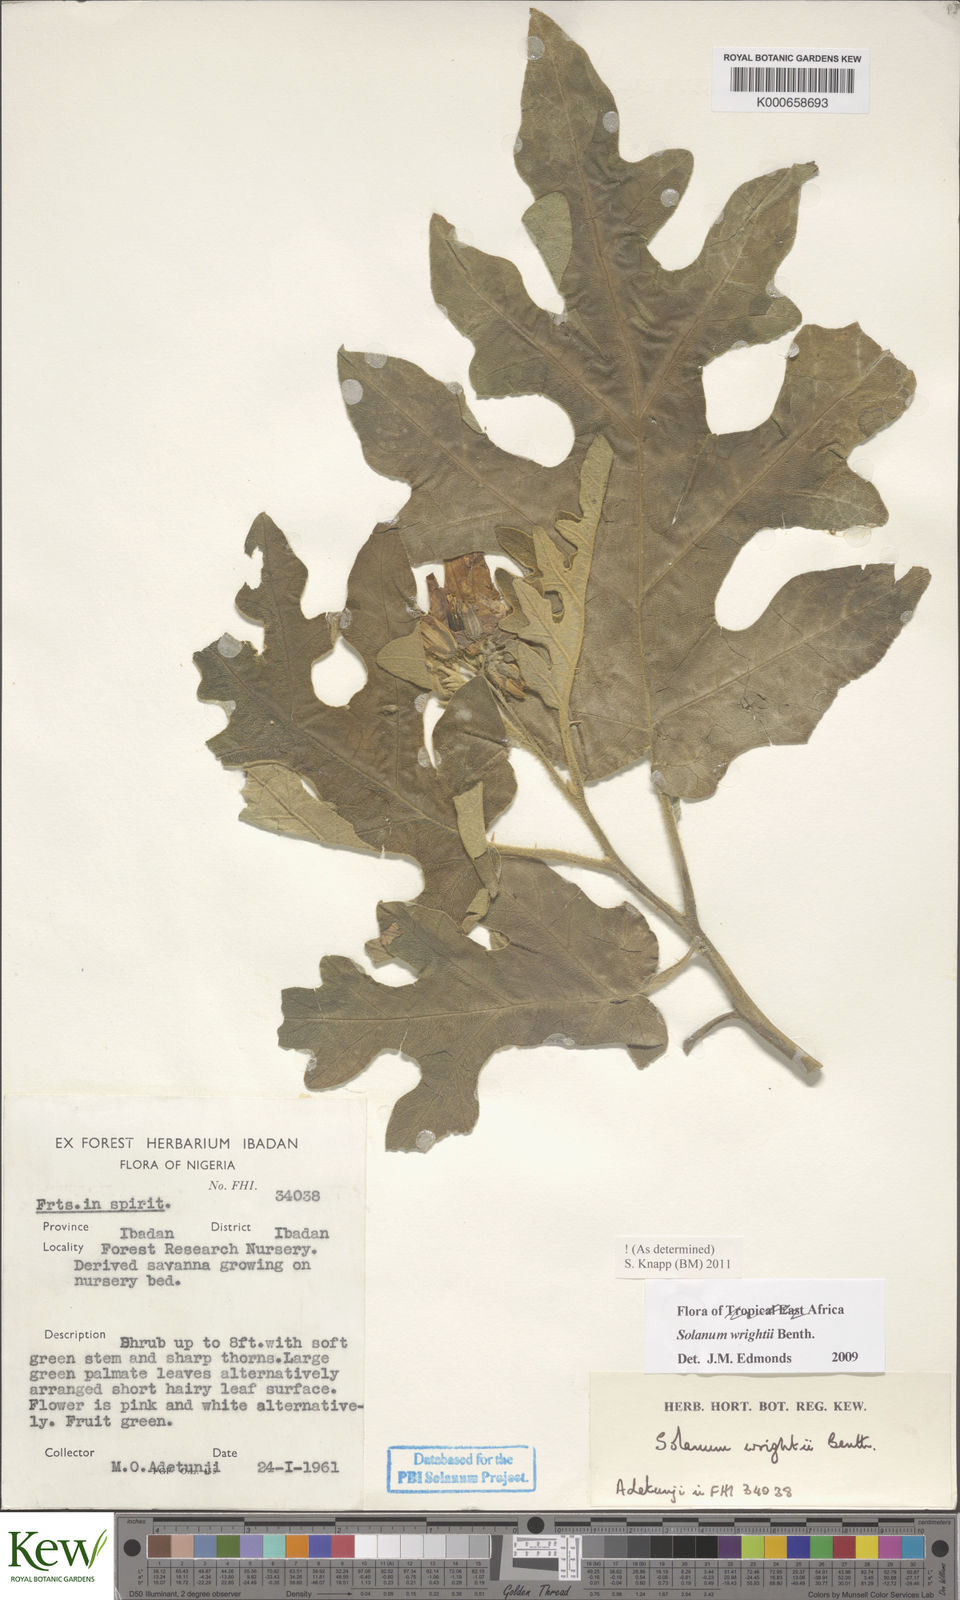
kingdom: Plantae
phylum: Tracheophyta
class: Magnoliopsida
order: Solanales
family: Solanaceae
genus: Solanum
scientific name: Solanum wrightii
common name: Brazilian potato-tree
